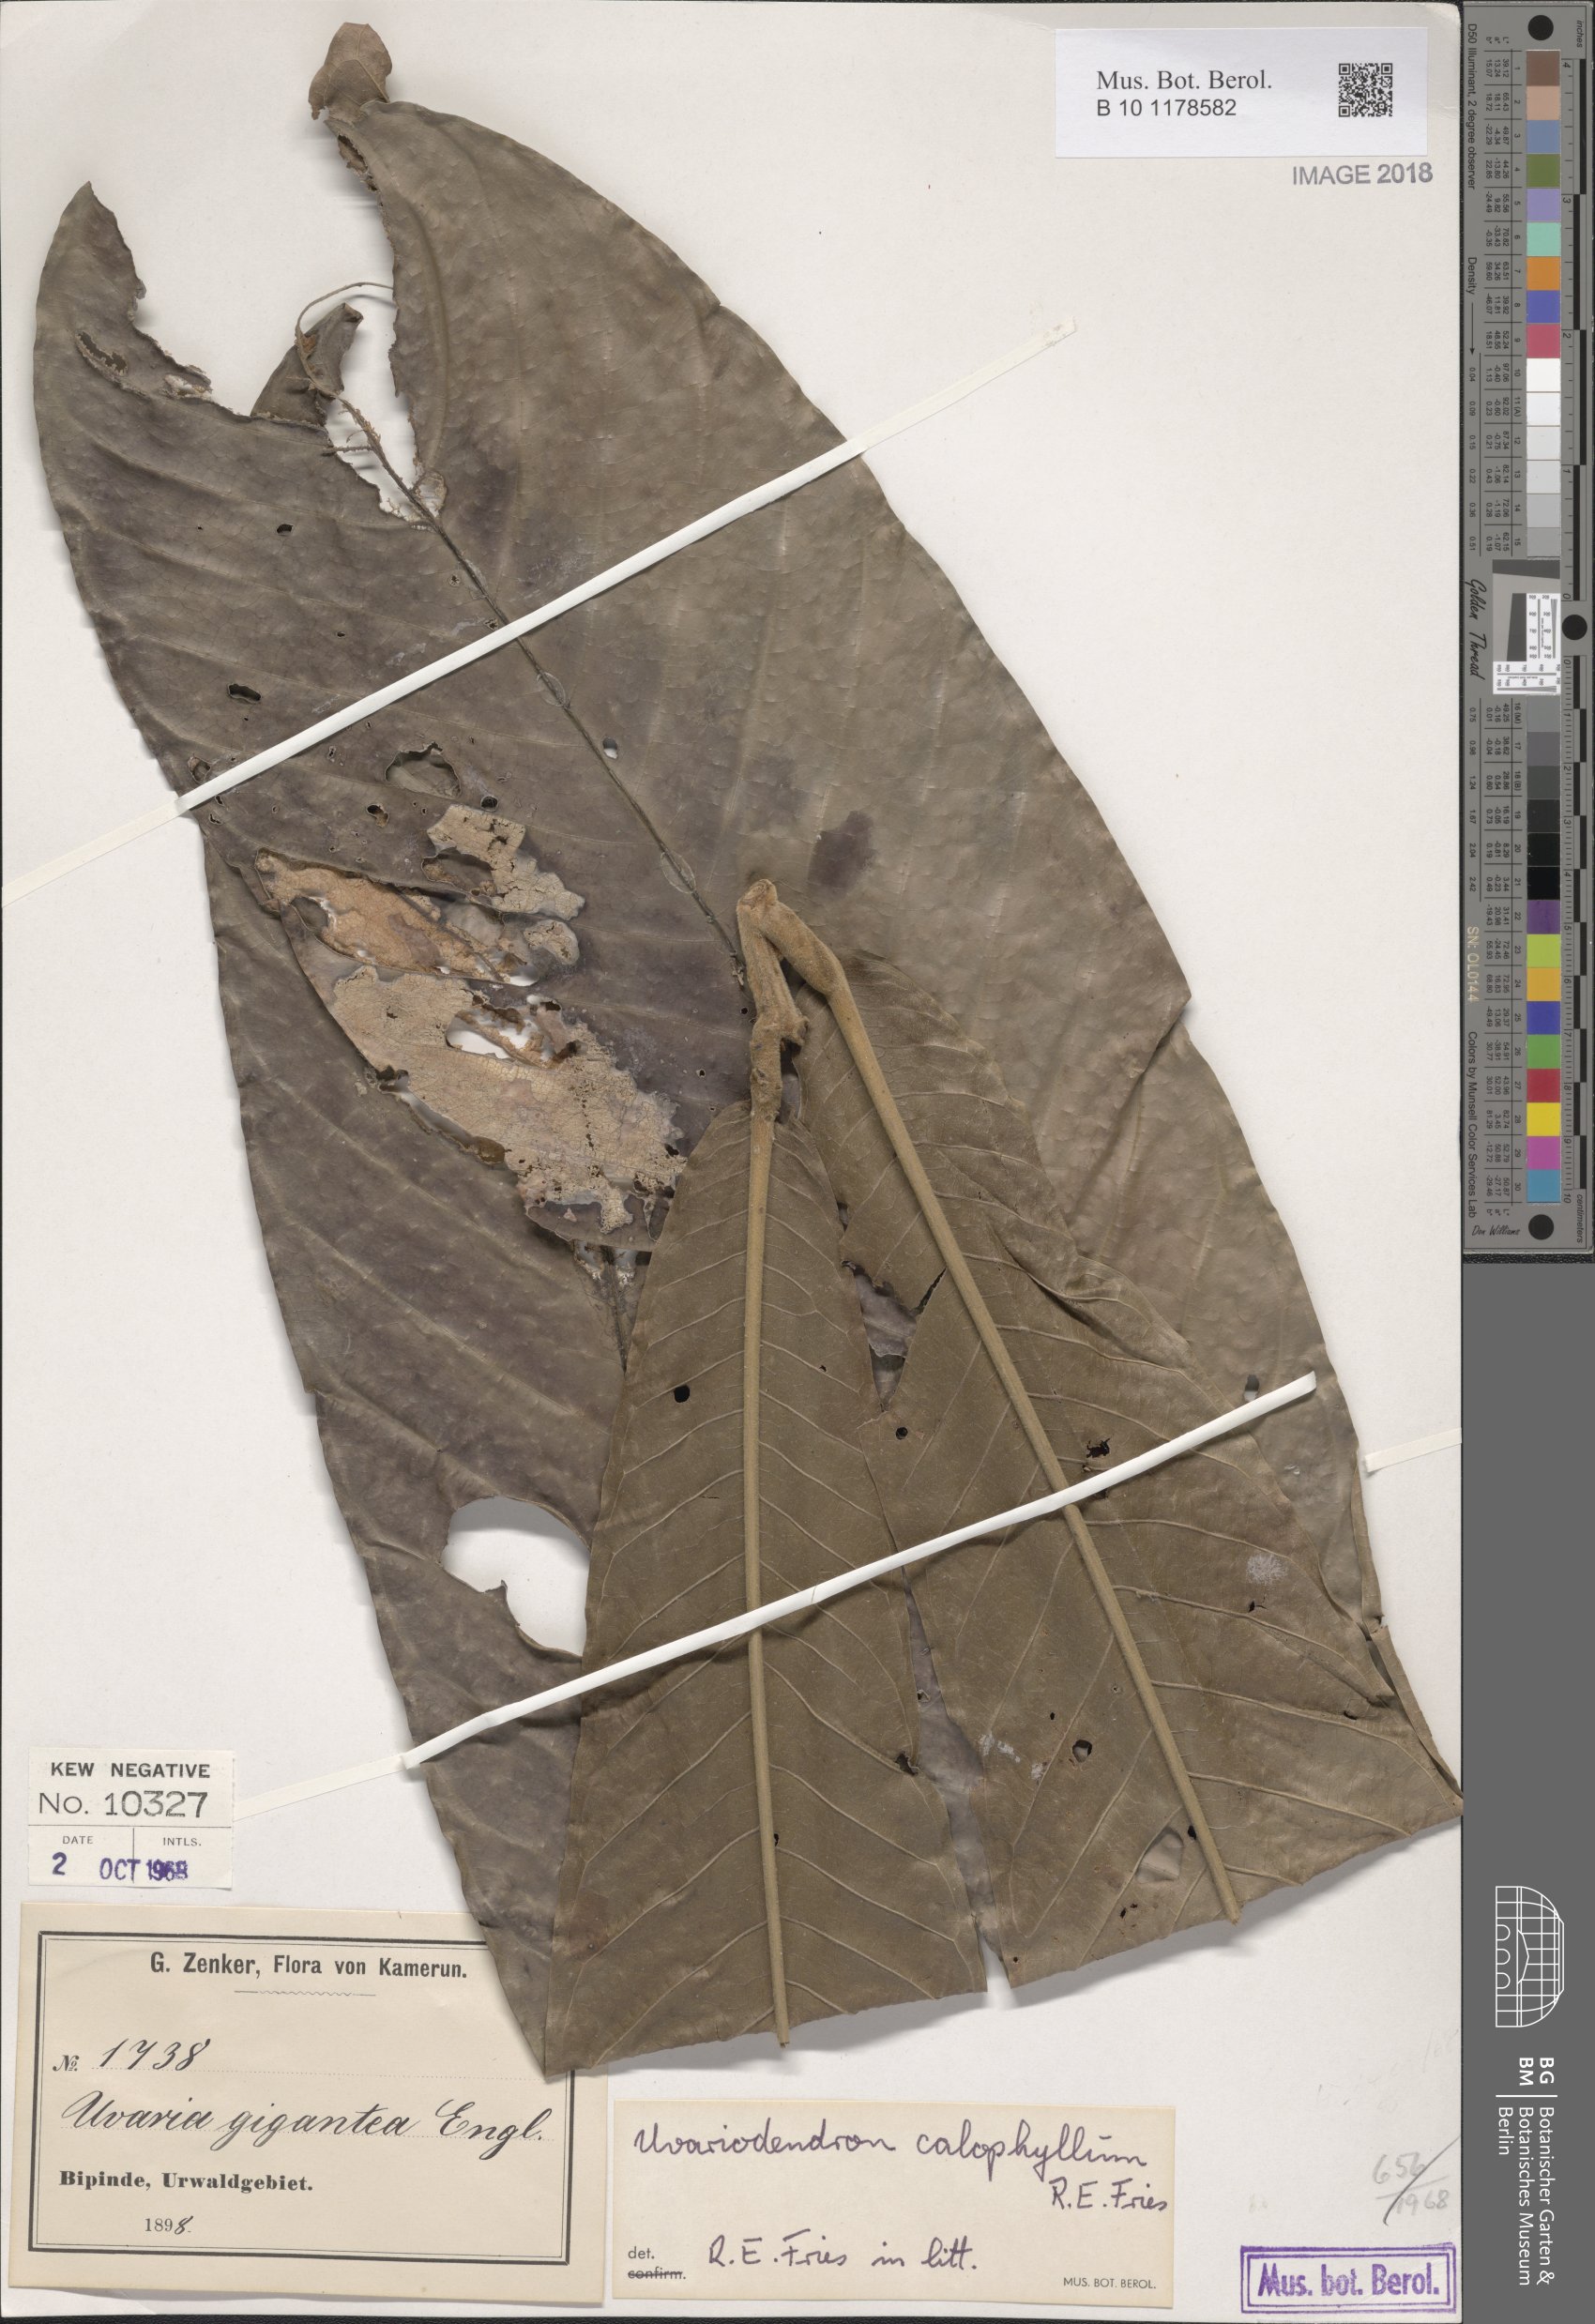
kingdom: Plantae
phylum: Tracheophyta
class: Magnoliopsida
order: Magnoliales
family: Annonaceae
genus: Uvariodendron
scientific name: Uvariodendron giganteum
